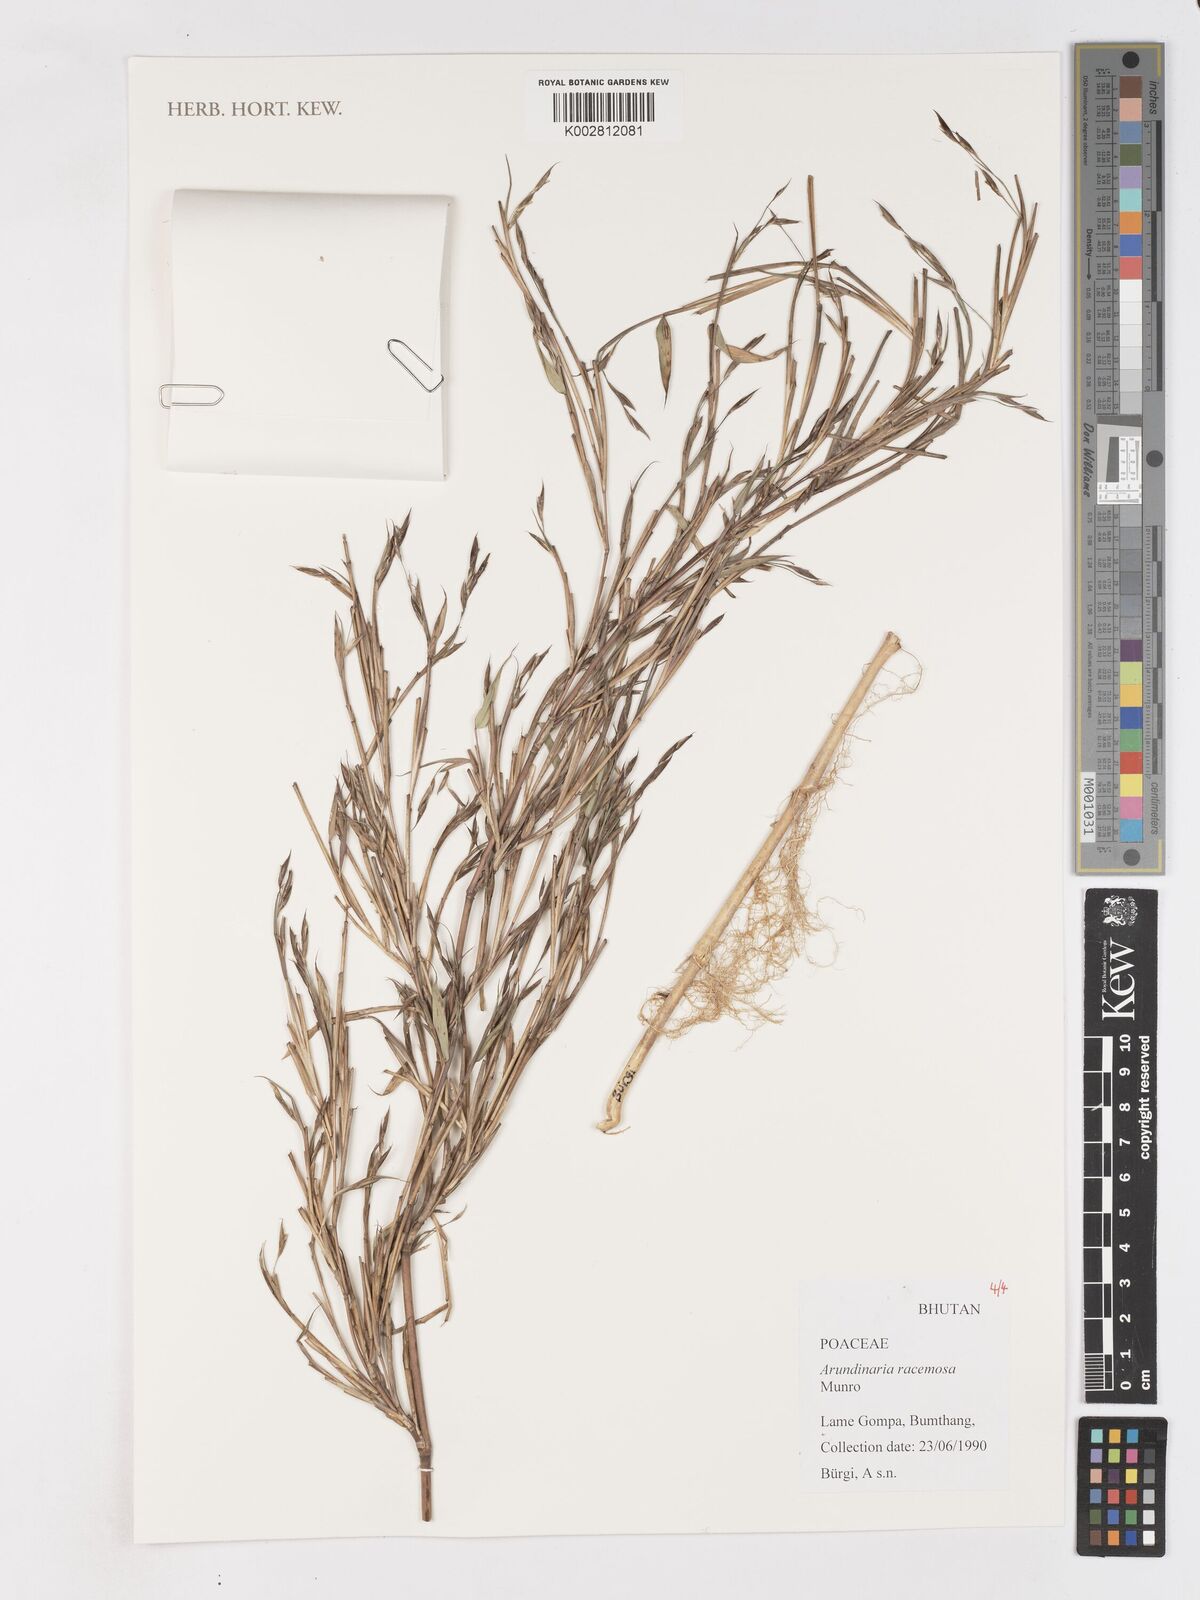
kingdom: Plantae
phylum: Tracheophyta
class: Liliopsida
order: Poales
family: Poaceae
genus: Sarocalamus
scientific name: Sarocalamus racemosus
